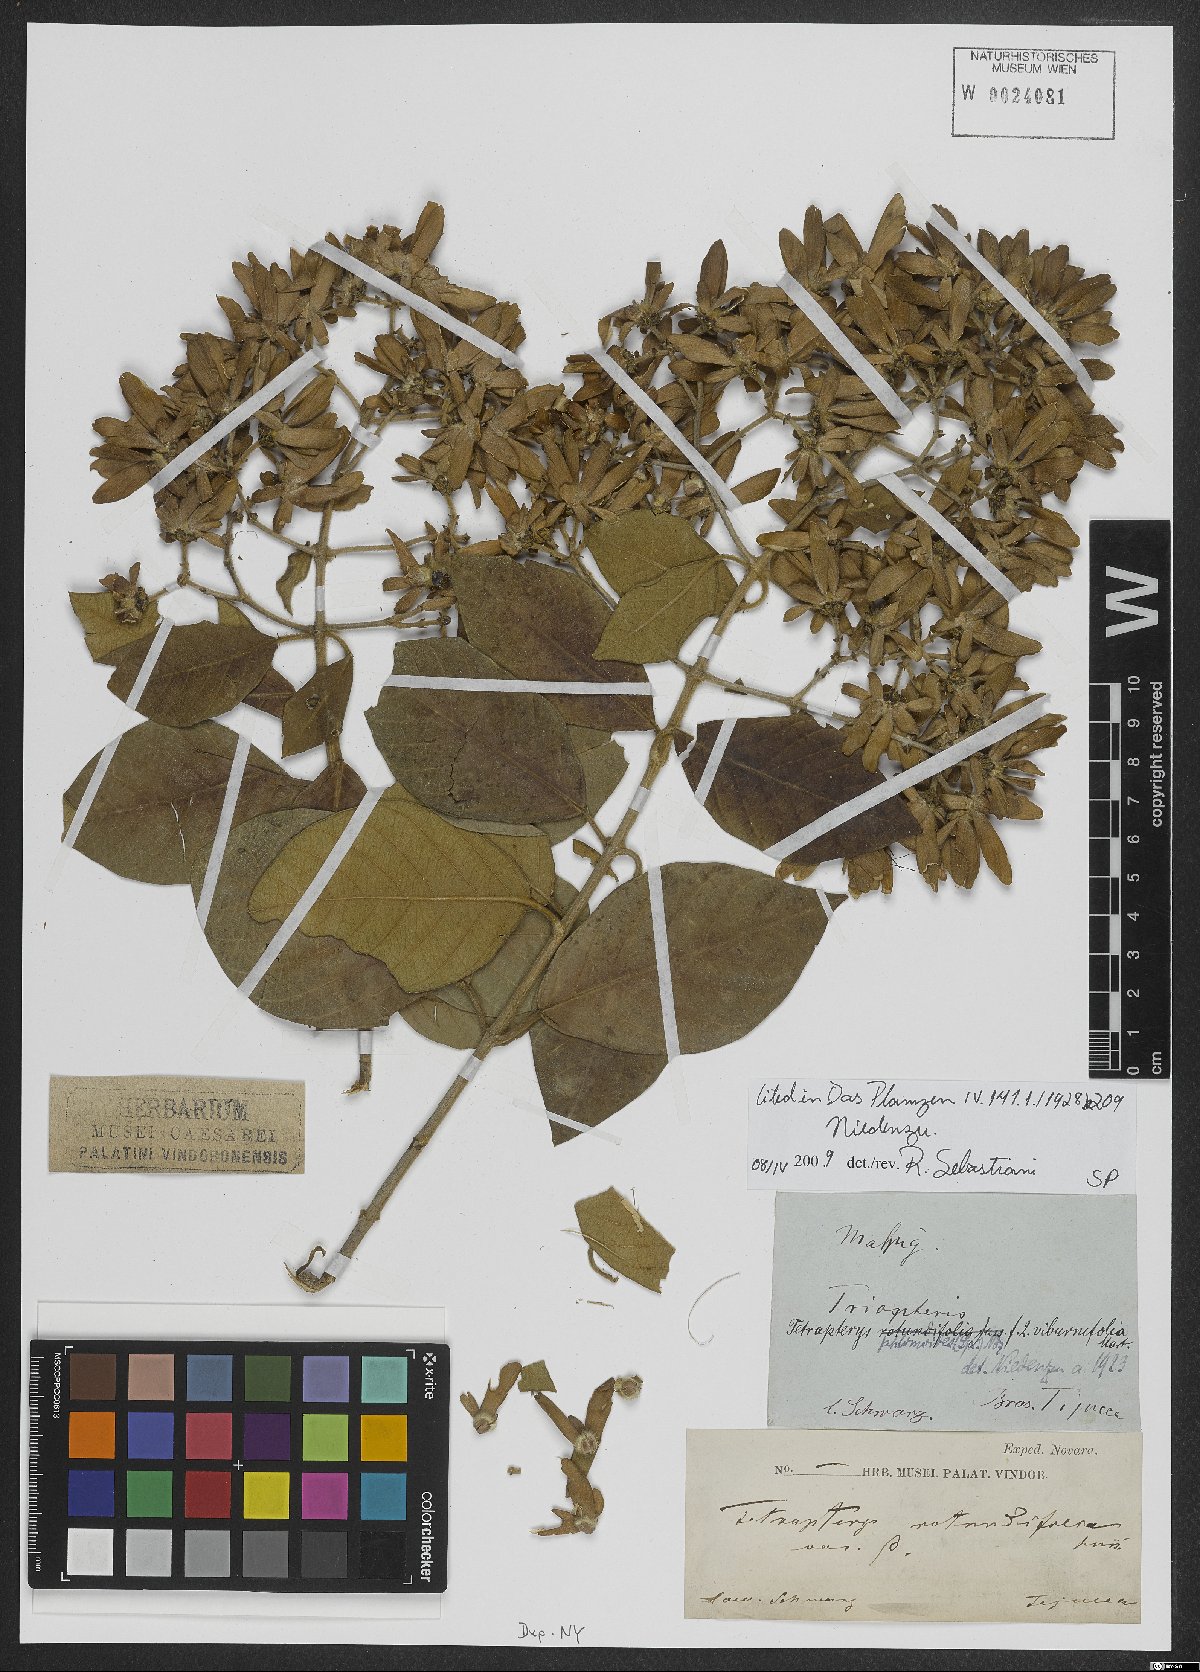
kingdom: Plantae
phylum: Tracheophyta
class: Magnoliopsida
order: Malpighiales
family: Malpighiaceae
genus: Tetrapterys
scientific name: Tetrapterys phlomoides
